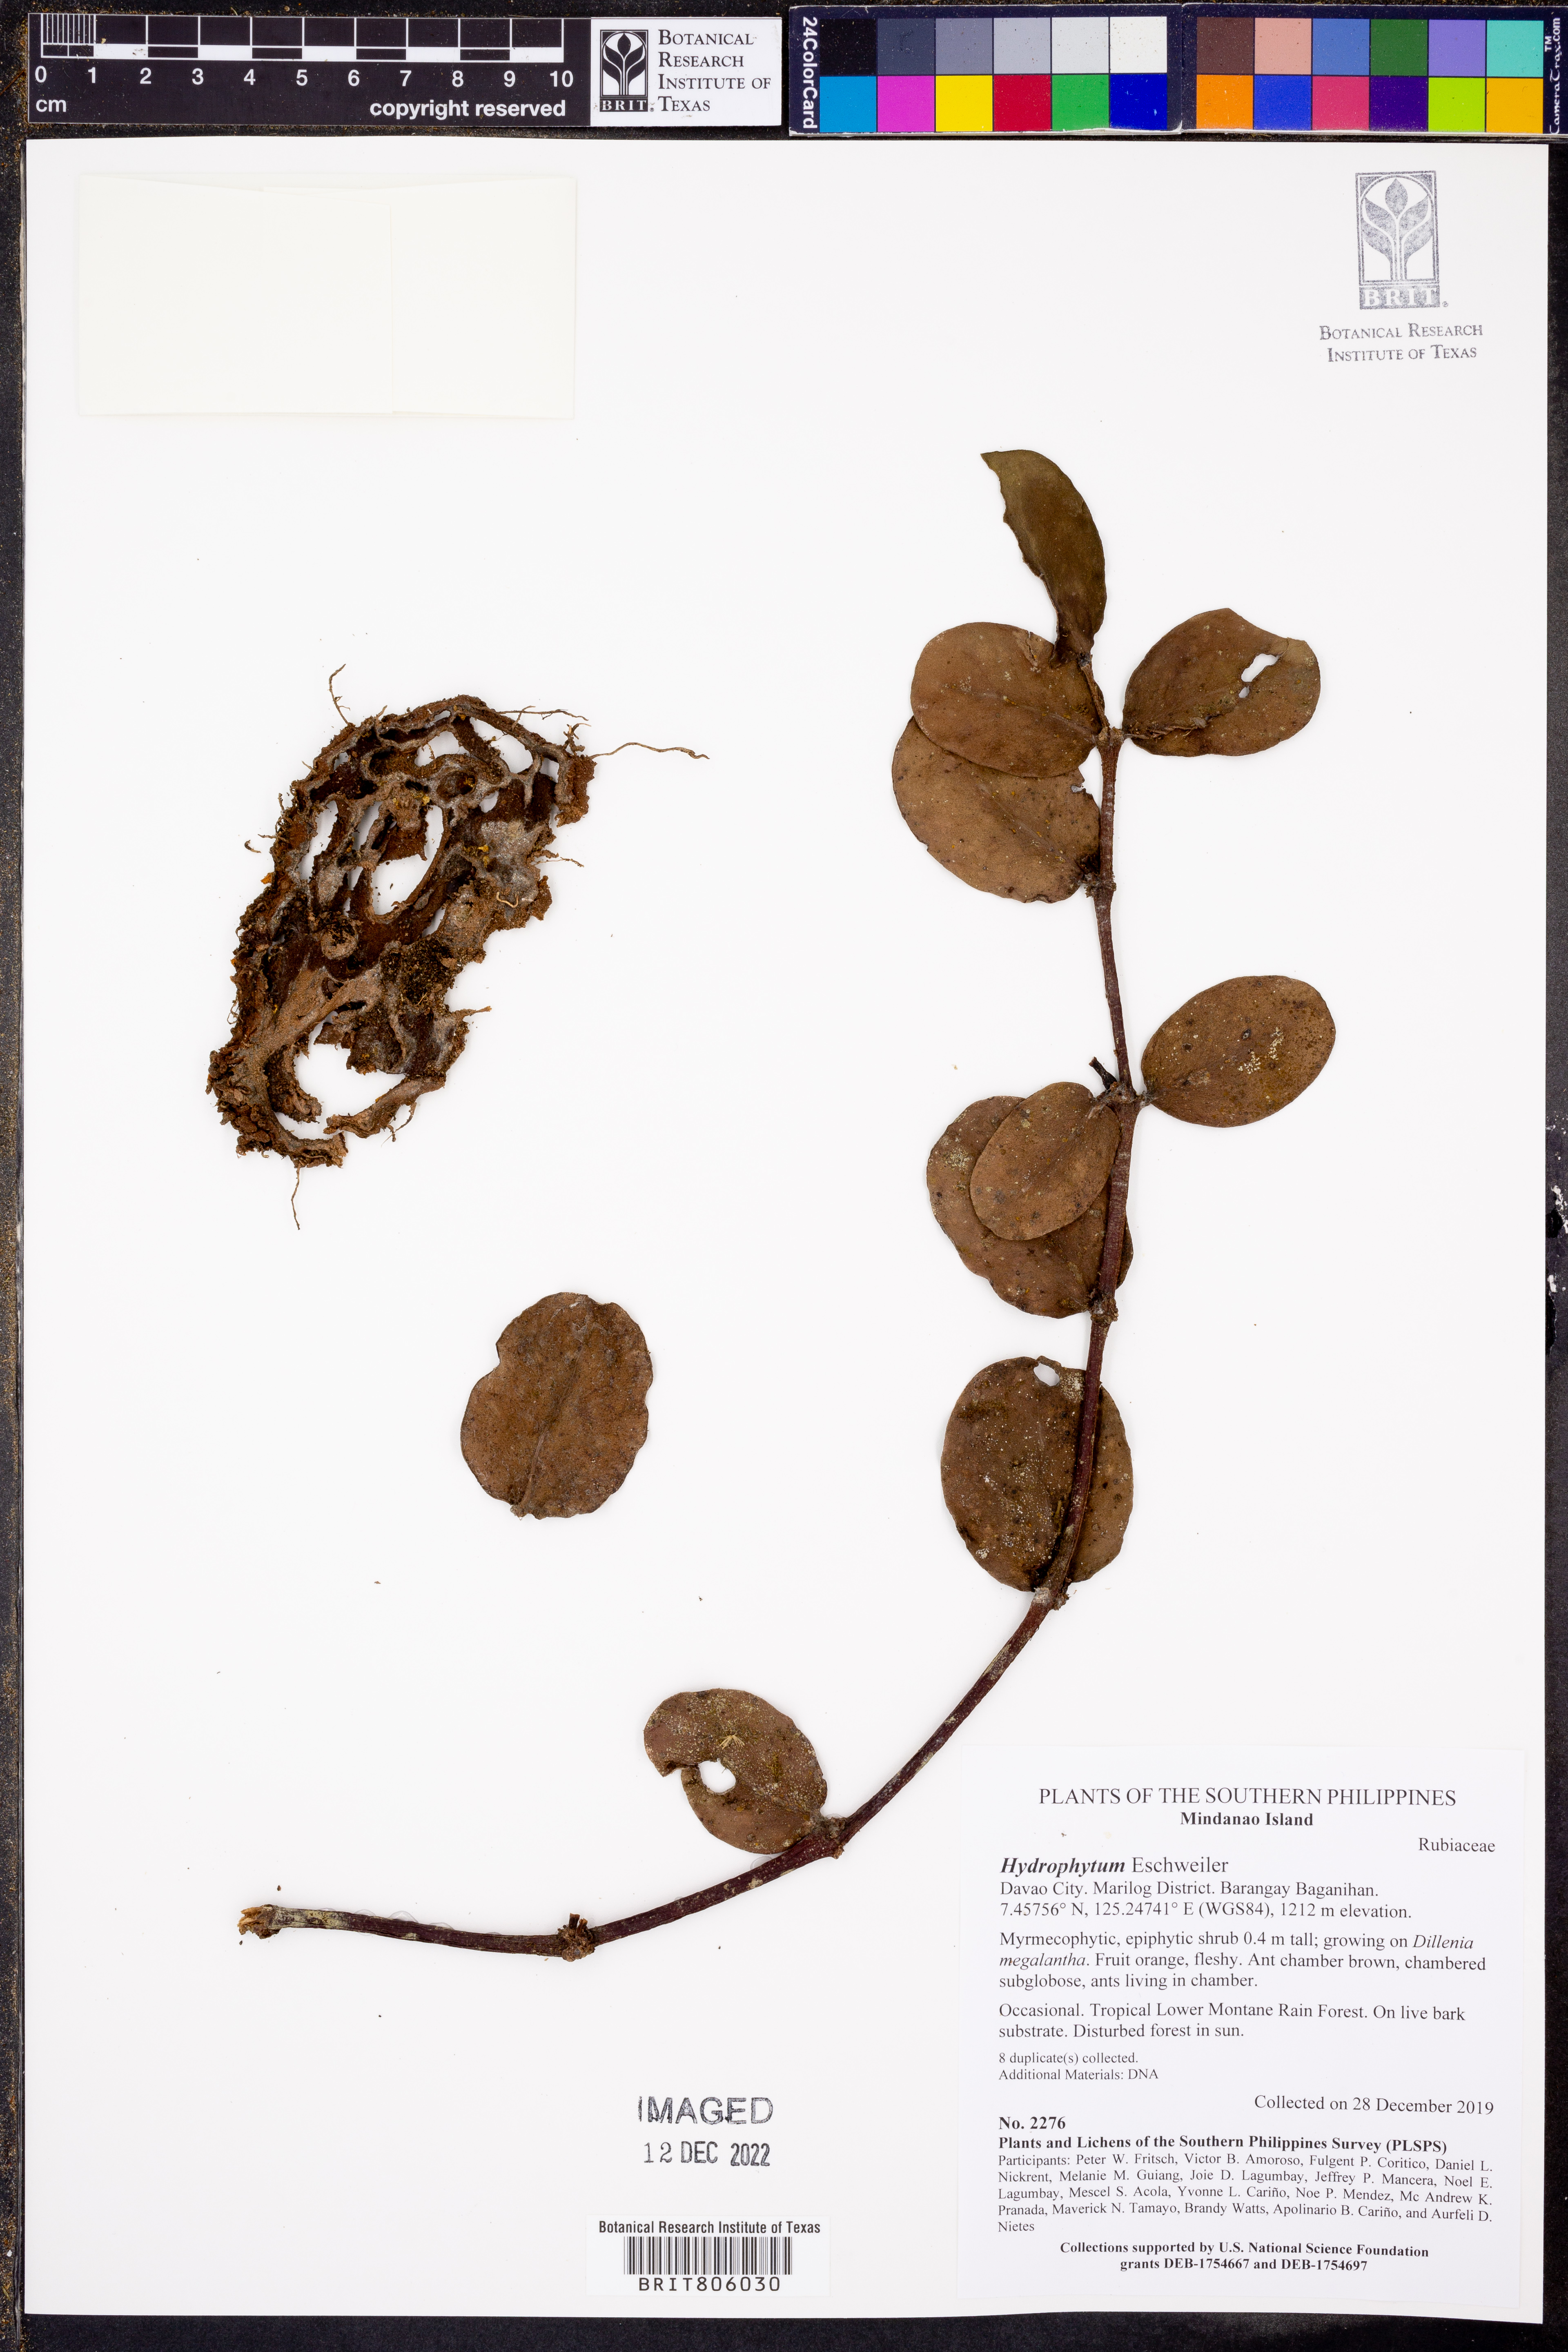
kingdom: Plantae
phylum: Tracheophyta
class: Magnoliopsida
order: Gentianales
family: Rubiaceae
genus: Hydnophytum
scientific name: Hydnophytum
